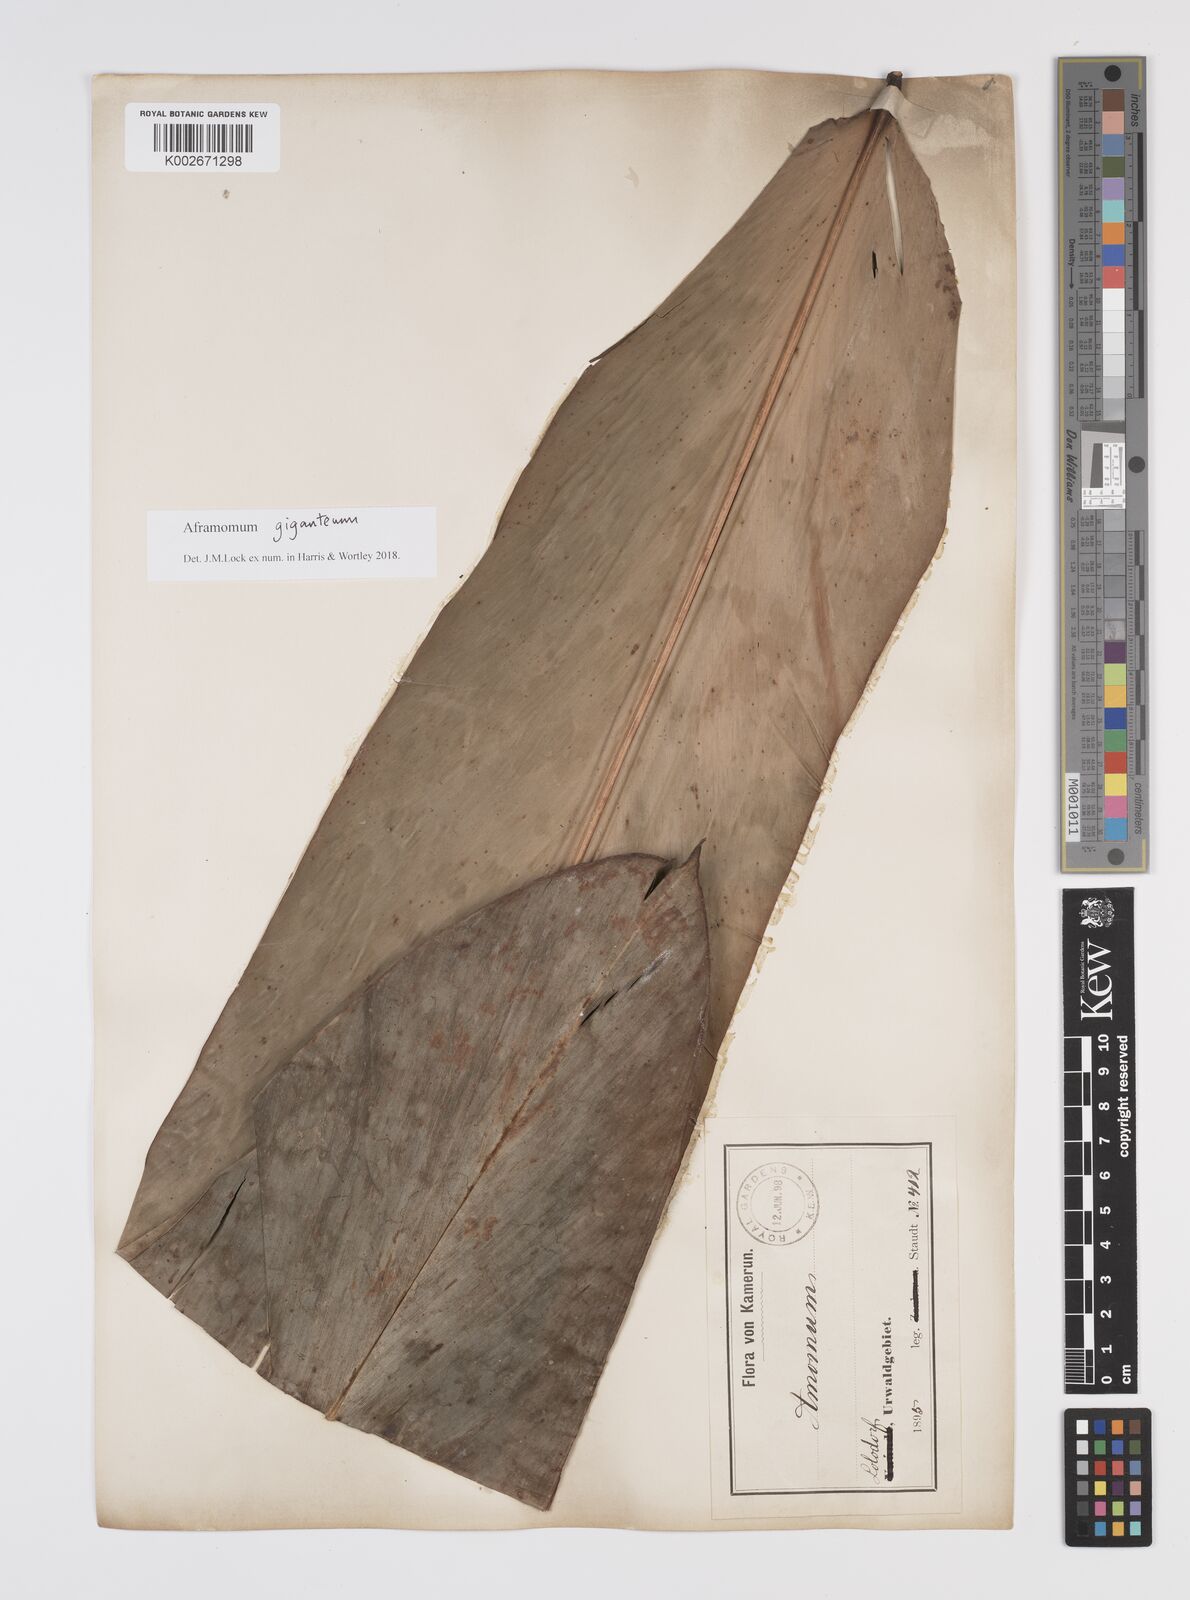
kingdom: Plantae
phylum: Tracheophyta
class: Liliopsida
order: Zingiberales
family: Zingiberaceae
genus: Aframomum
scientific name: Aframomum giganteum
